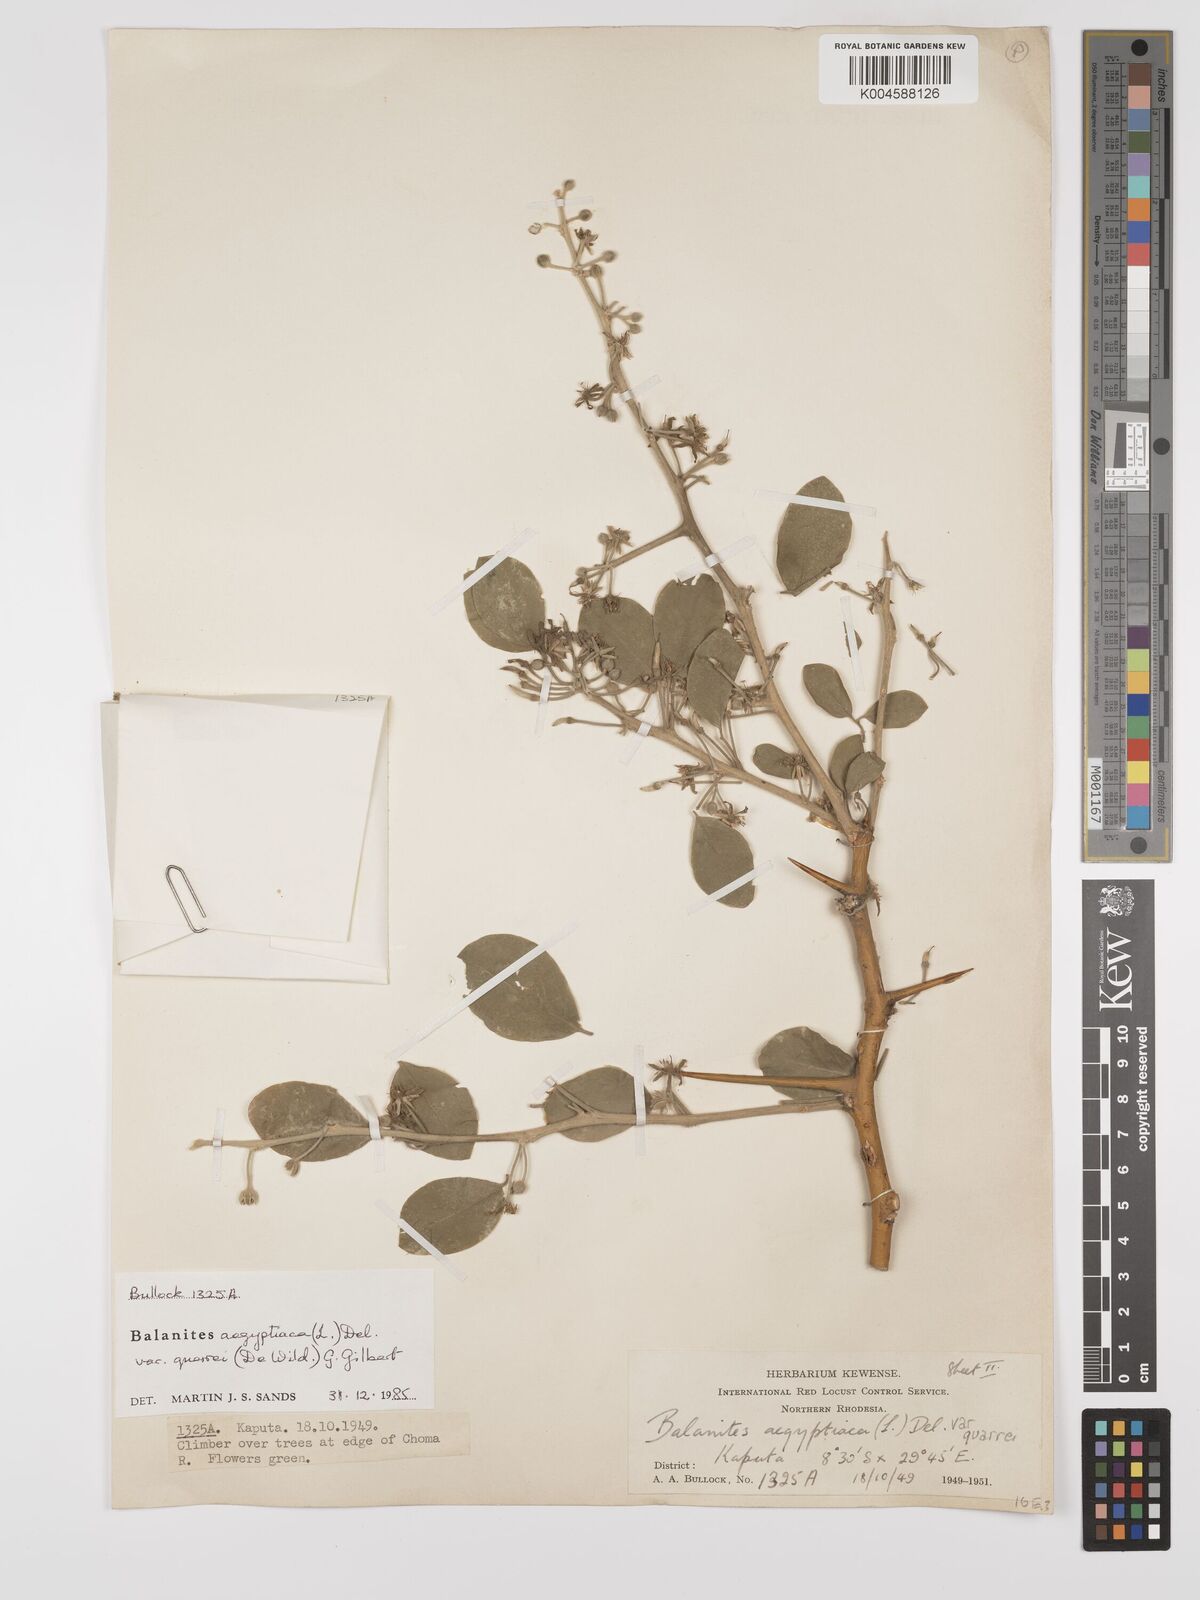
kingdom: Plantae
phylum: Tracheophyta
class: Magnoliopsida
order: Zygophyllales
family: Zygophyllaceae
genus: Balanites
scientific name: Balanites aegyptiaca
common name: Balanites
